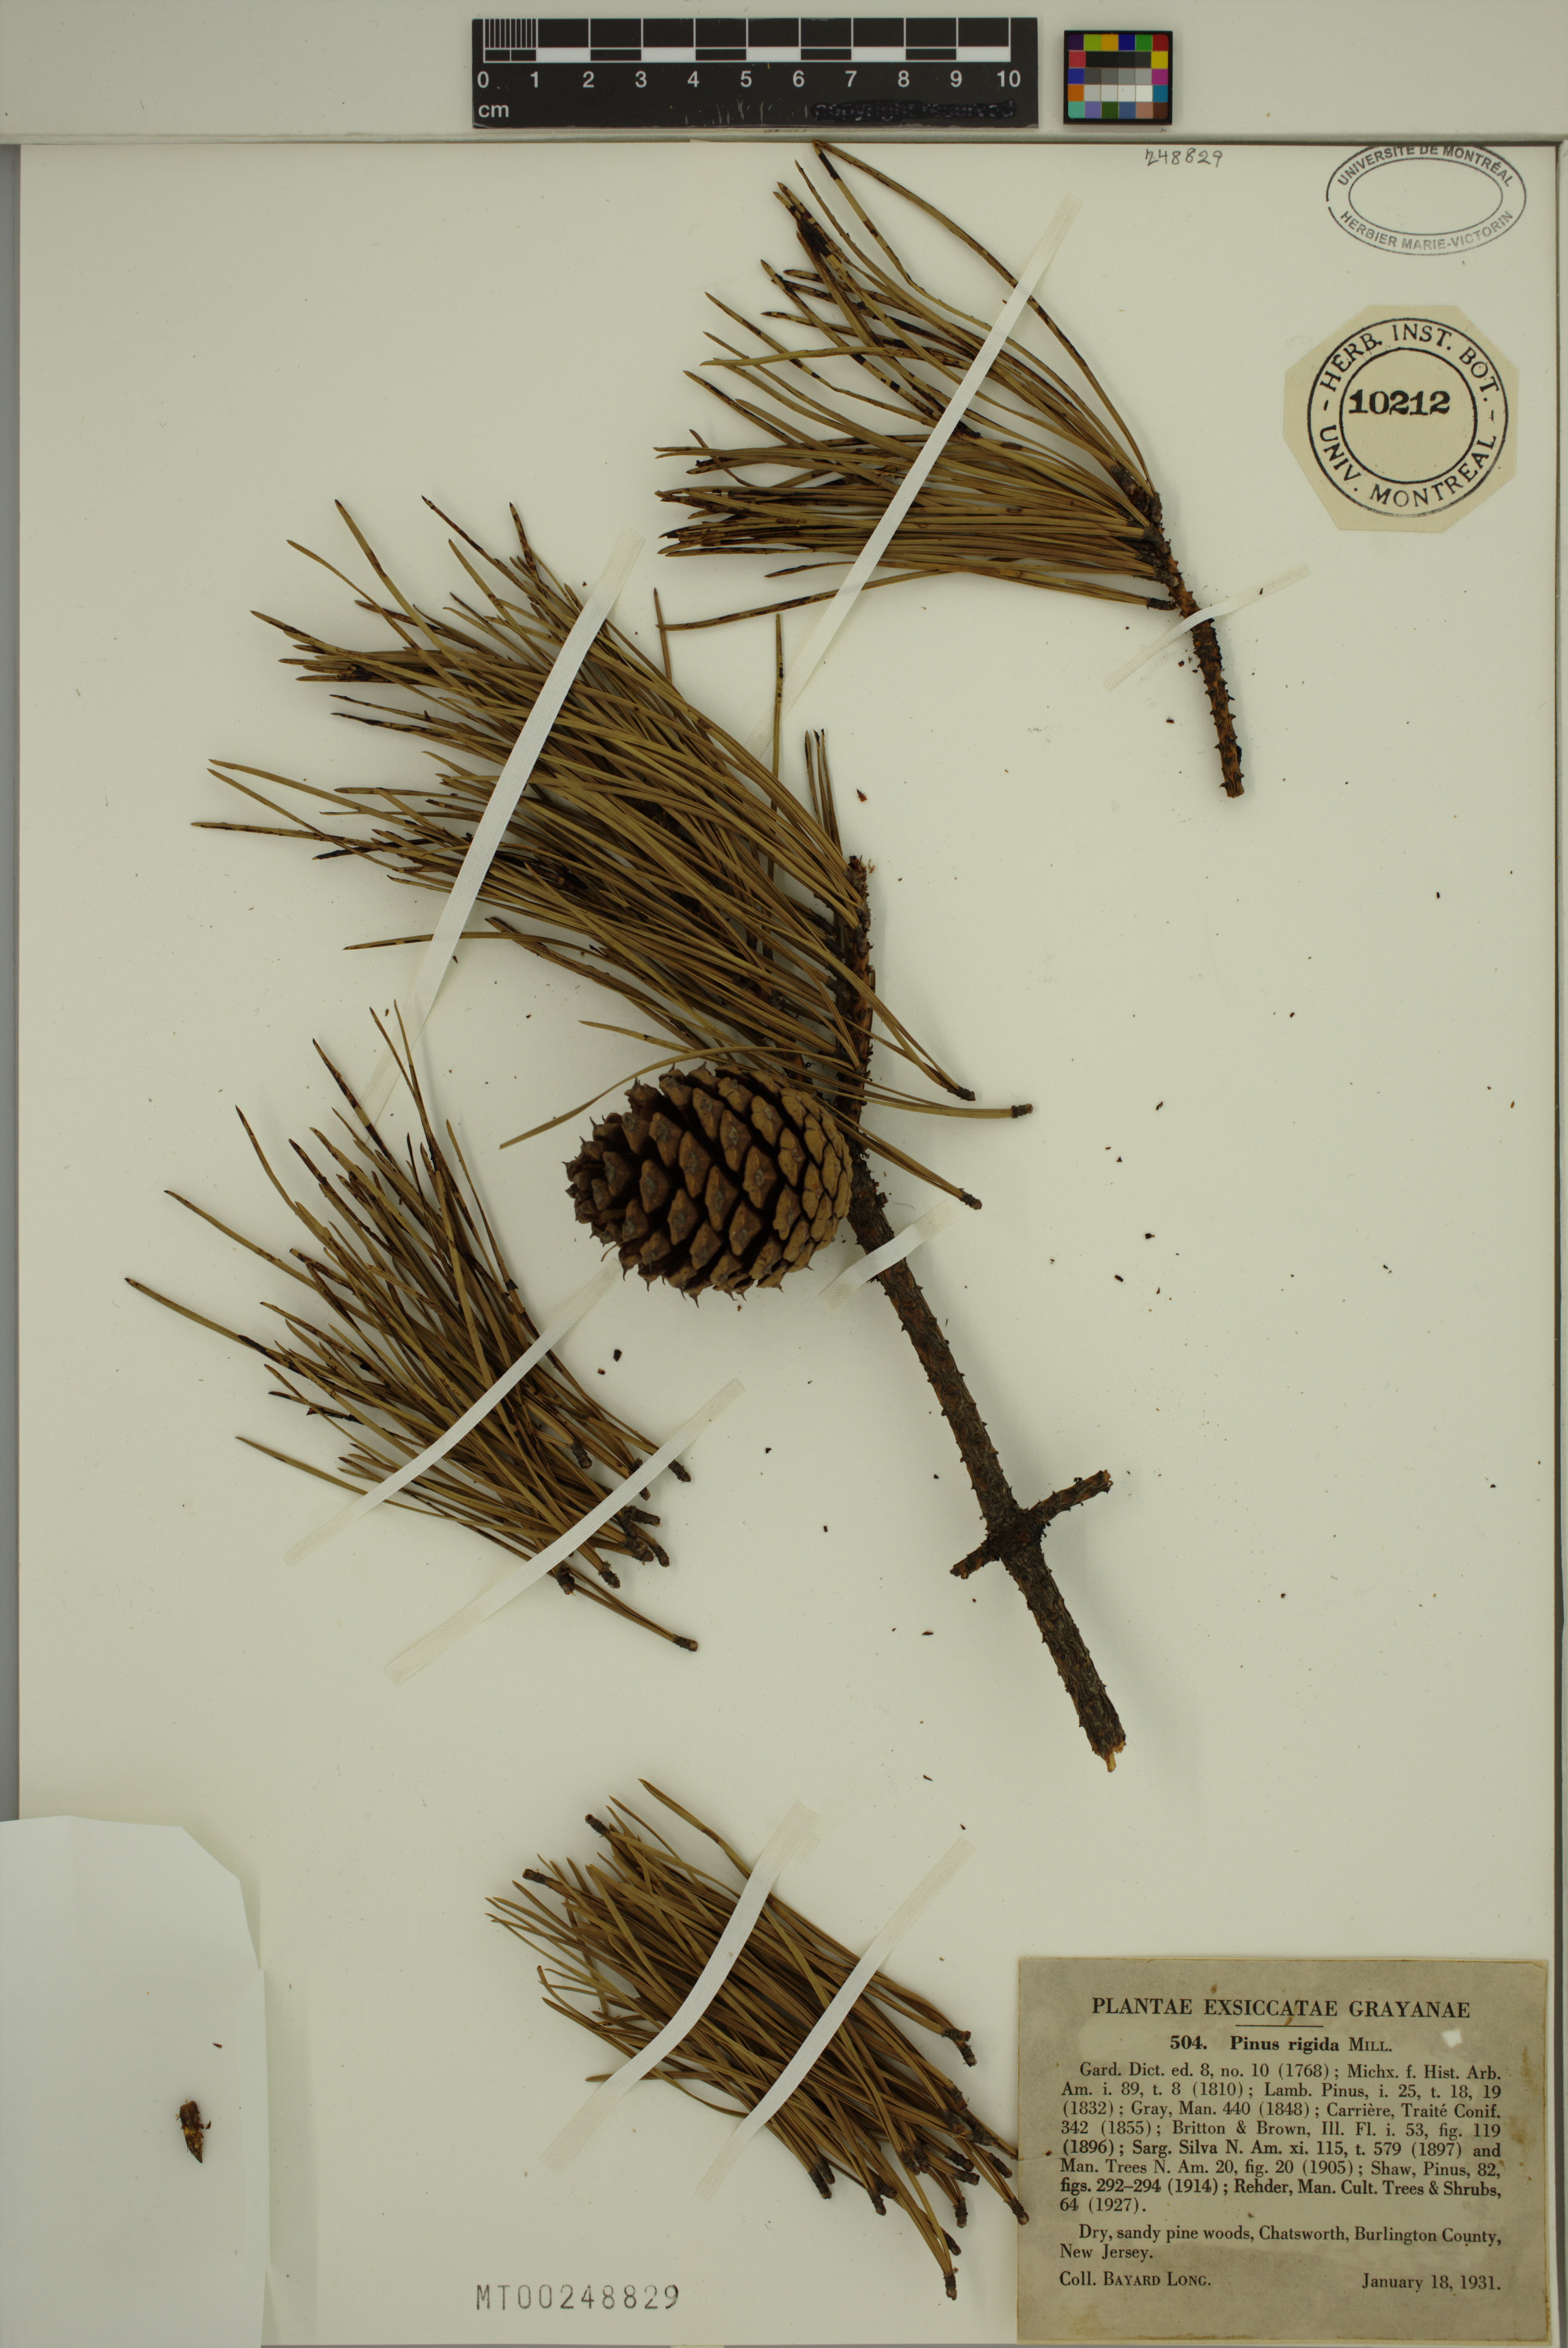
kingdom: Plantae
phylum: Tracheophyta
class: Pinopsida
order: Pinales
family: Pinaceae
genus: Pinus
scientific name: Pinus rigida
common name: Pitch pine
